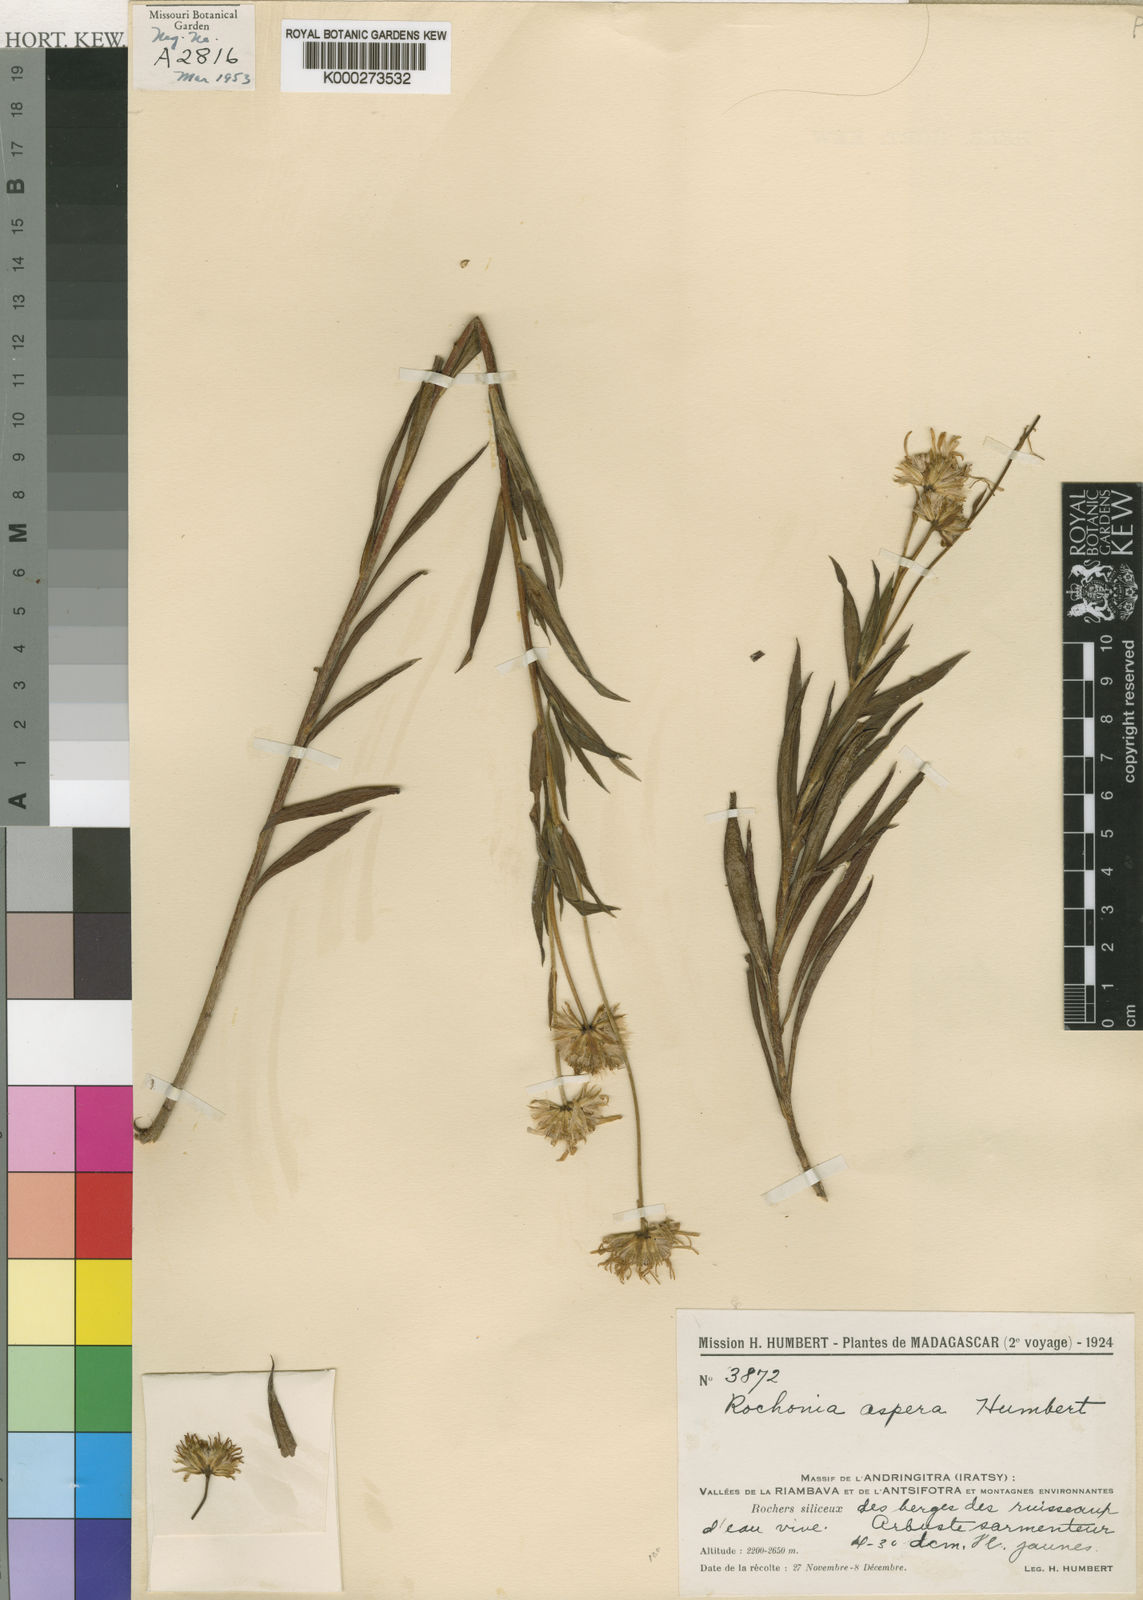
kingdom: Plantae
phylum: Tracheophyta
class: Magnoliopsida
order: Asterales
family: Asteraceae
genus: Rochonia
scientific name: Rochonia aspera
